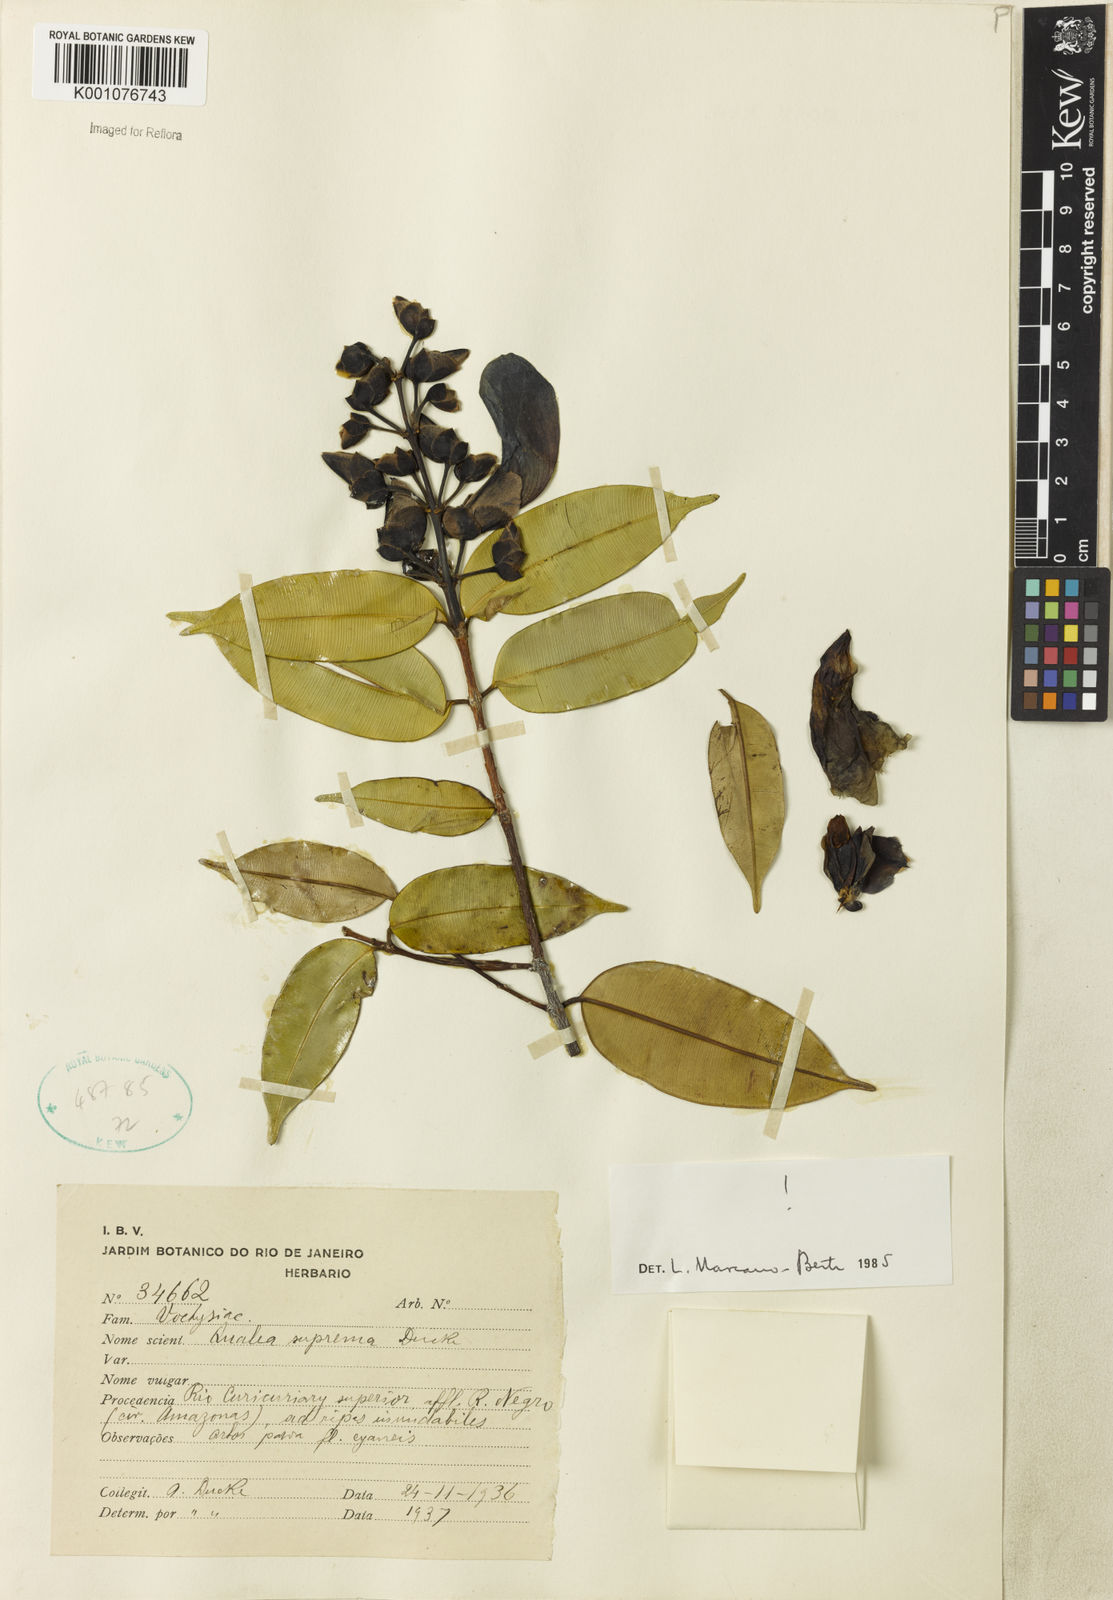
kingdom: Plantae
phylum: Tracheophyta
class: Magnoliopsida
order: Myrtales
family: Vochysiaceae
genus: Qualea
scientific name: Qualea suprema
